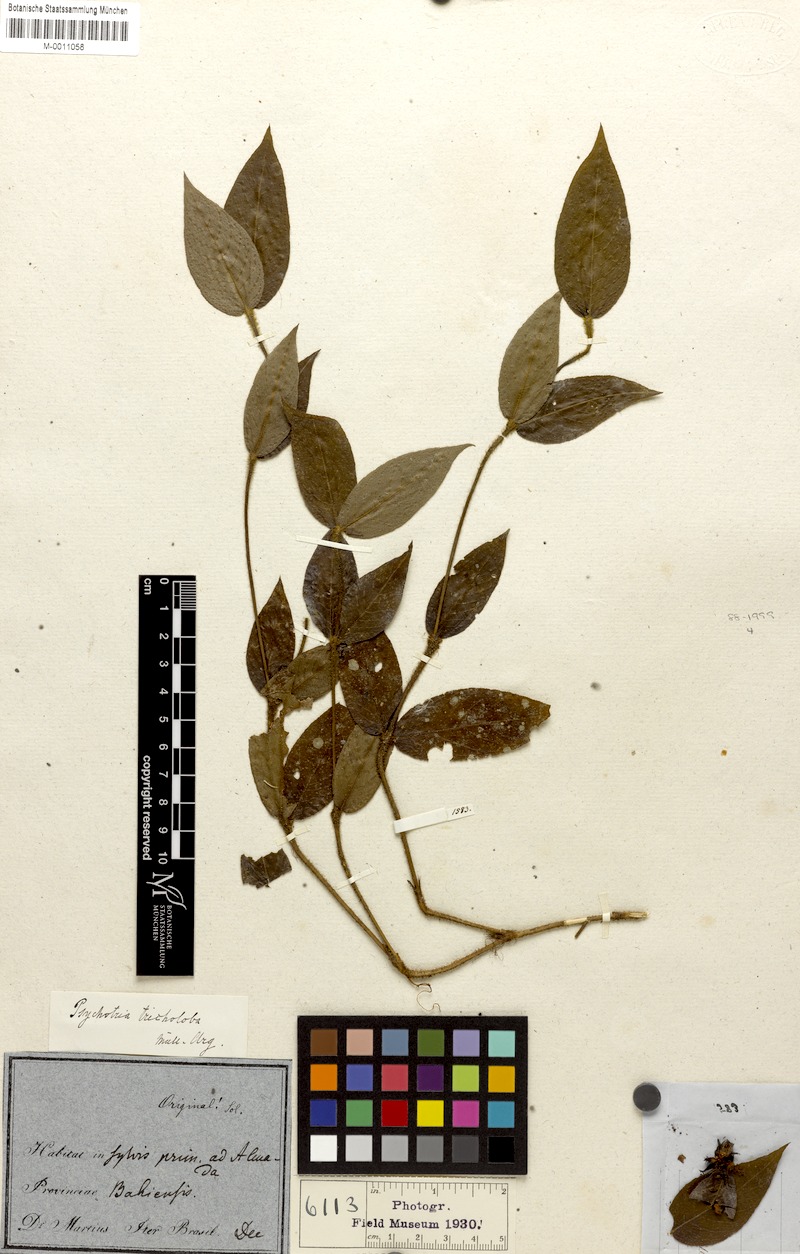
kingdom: Plantae
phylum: Tracheophyta
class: Magnoliopsida
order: Gentianales
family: Rubiaceae
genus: Palicourea
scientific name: Palicourea iodotricha
